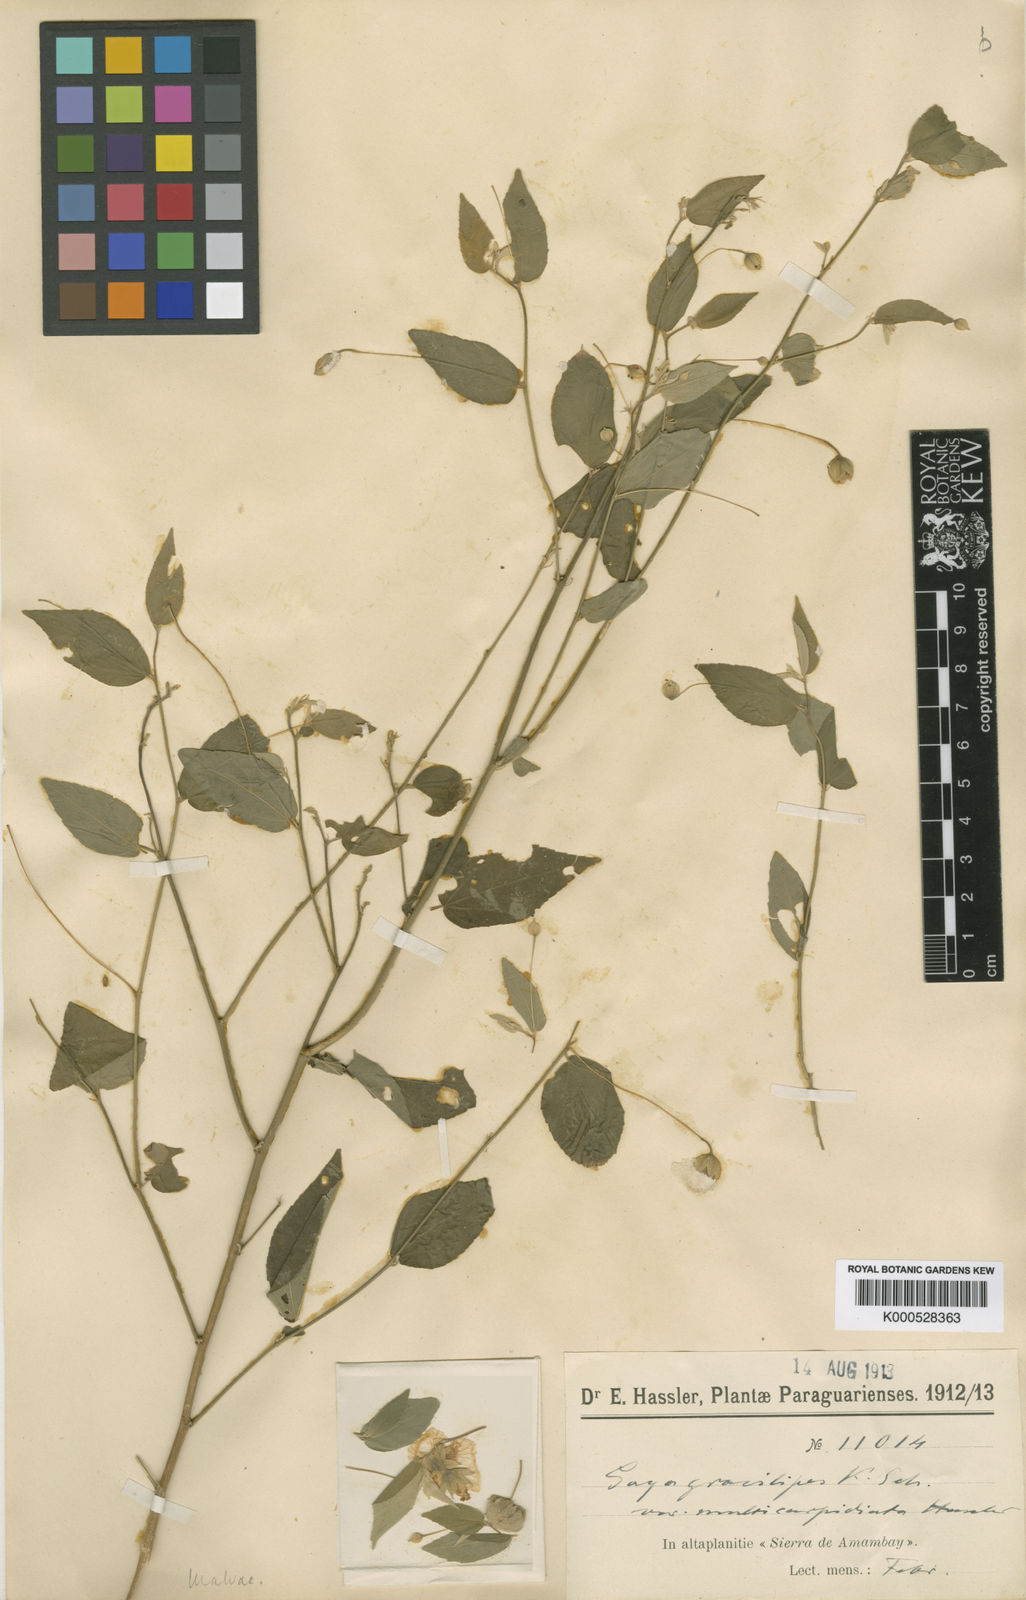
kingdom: Plantae
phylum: Tracheophyta
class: Magnoliopsida
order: Malvales
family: Malvaceae
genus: Gaya
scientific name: Gaya gracilipes
